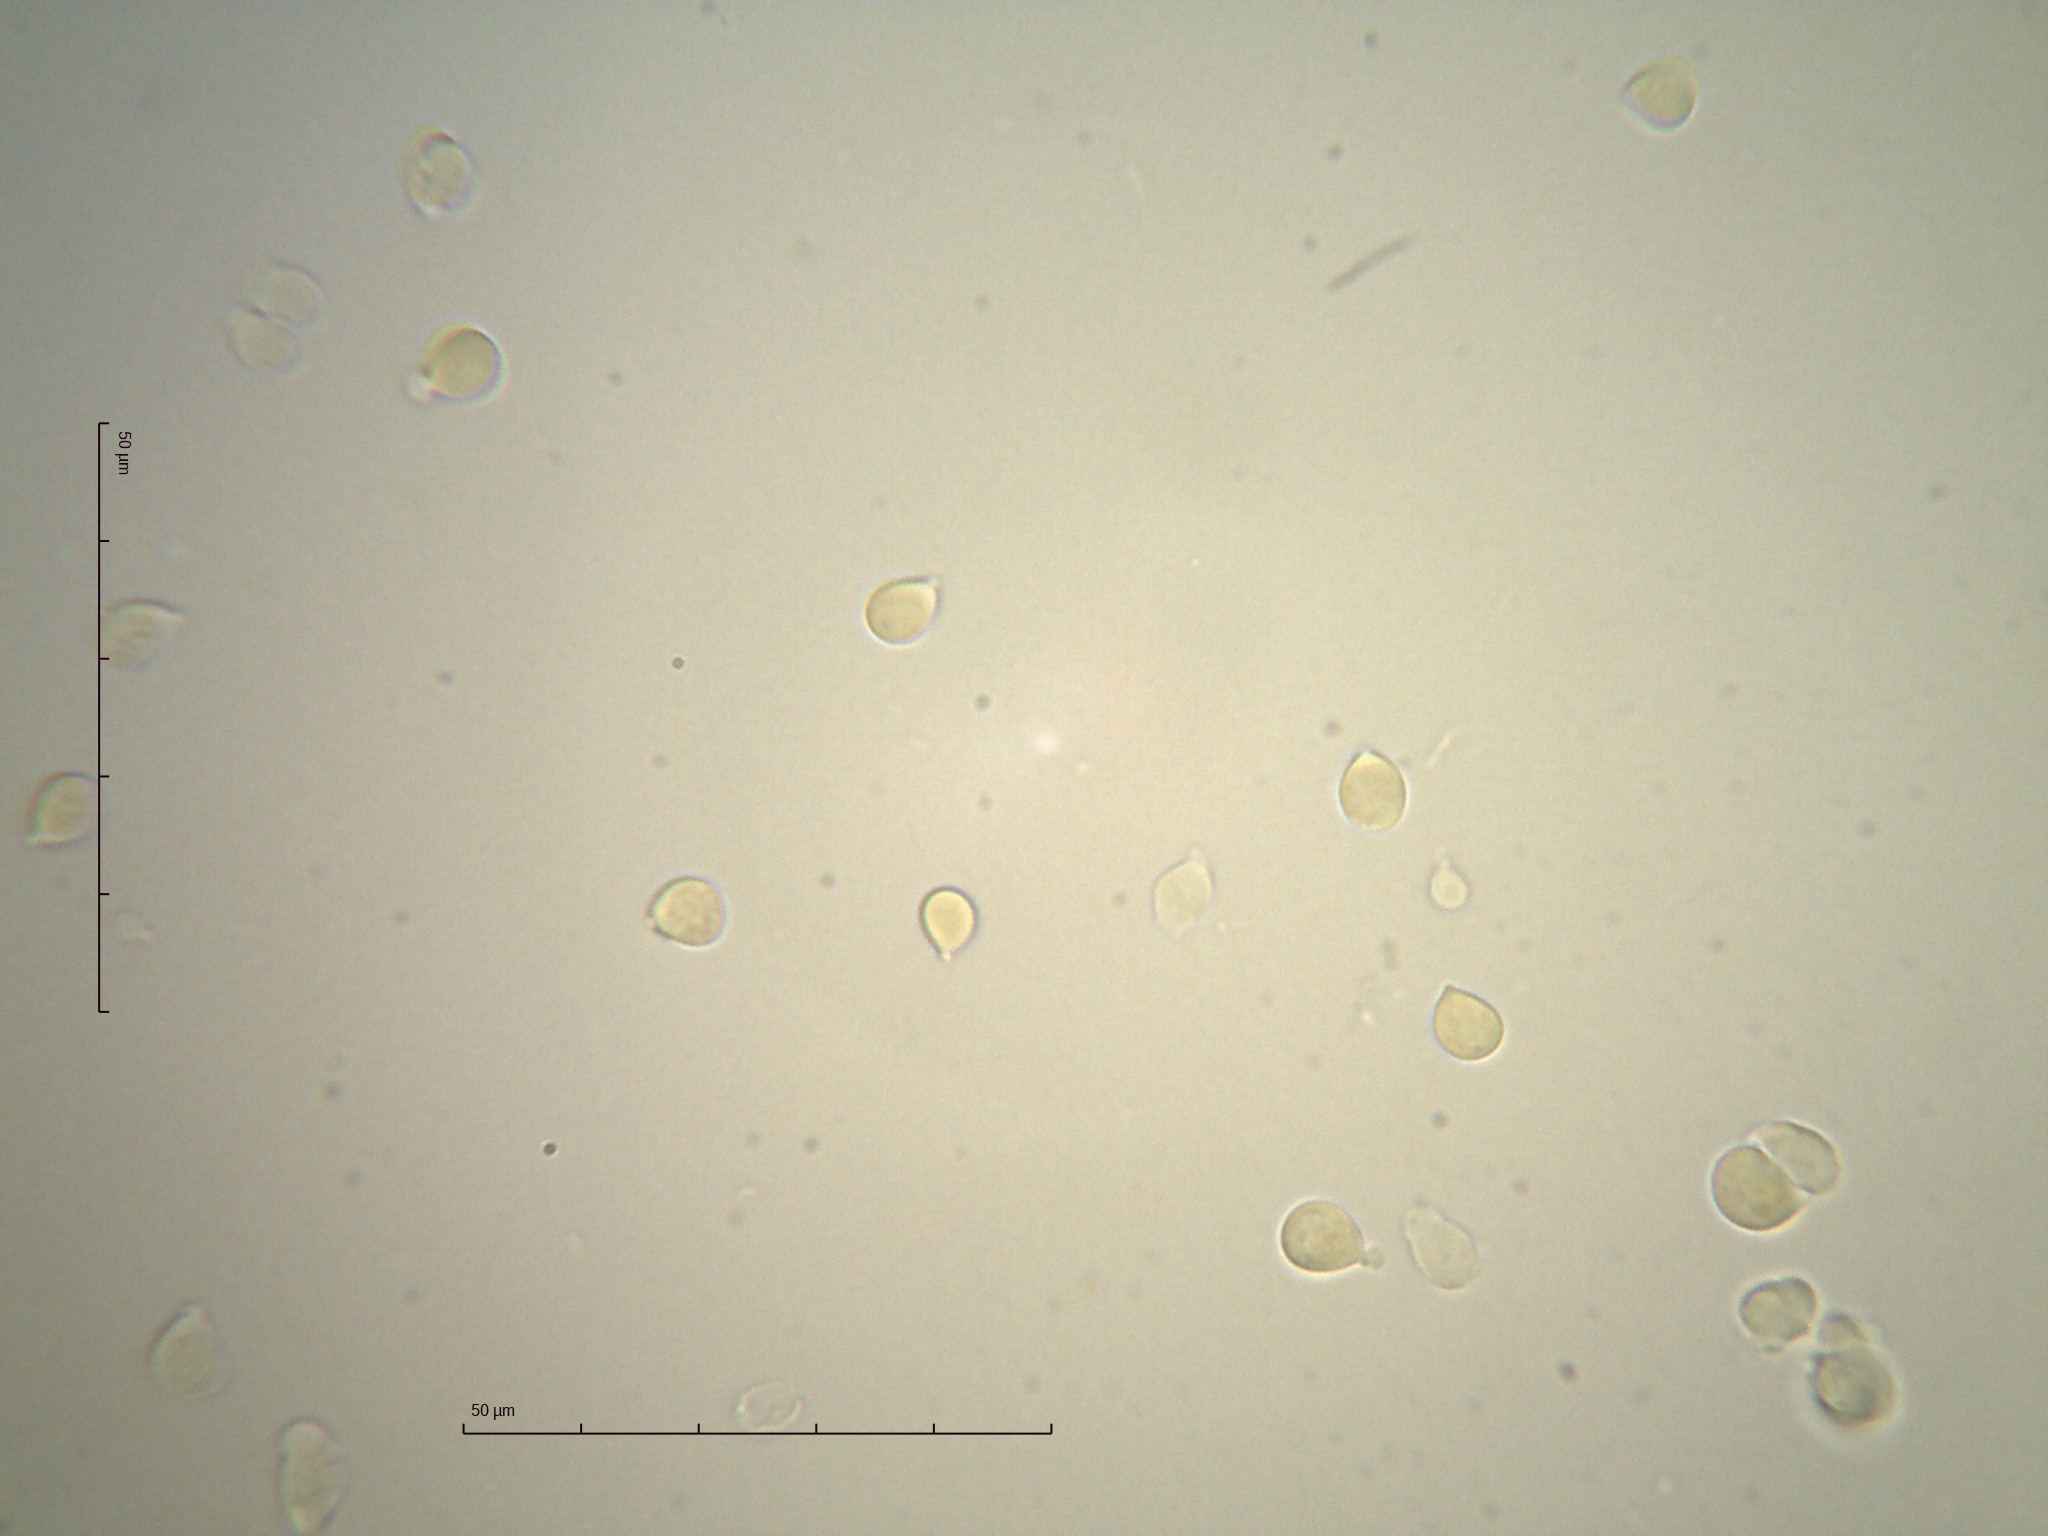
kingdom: Fungi
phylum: Basidiomycota
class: Agaricomycetes
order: Agaricales
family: Hygrophoraceae
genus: Arrhenia
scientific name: Arrhenia acerosa
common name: Moss oysterling
